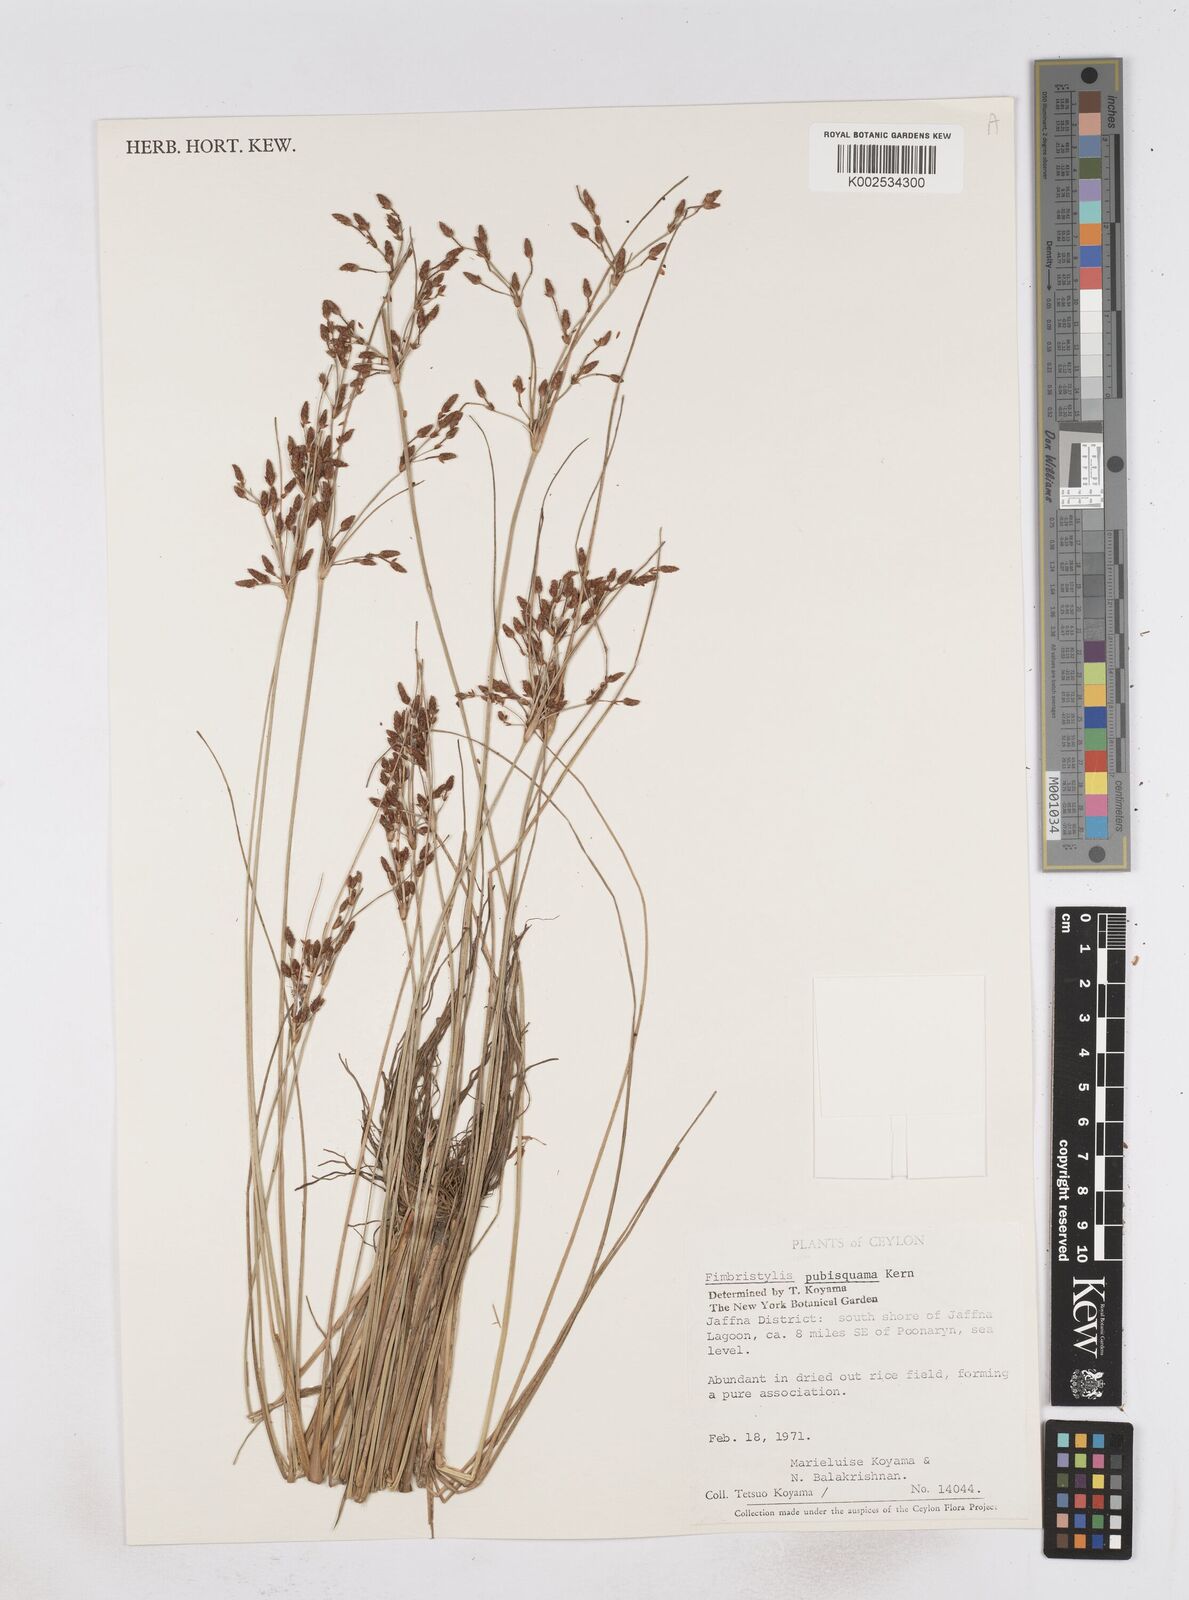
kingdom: Plantae
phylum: Tracheophyta
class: Liliopsida
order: Poales
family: Cyperaceae
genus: Fimbristylis
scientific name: Fimbristylis pubisquama
